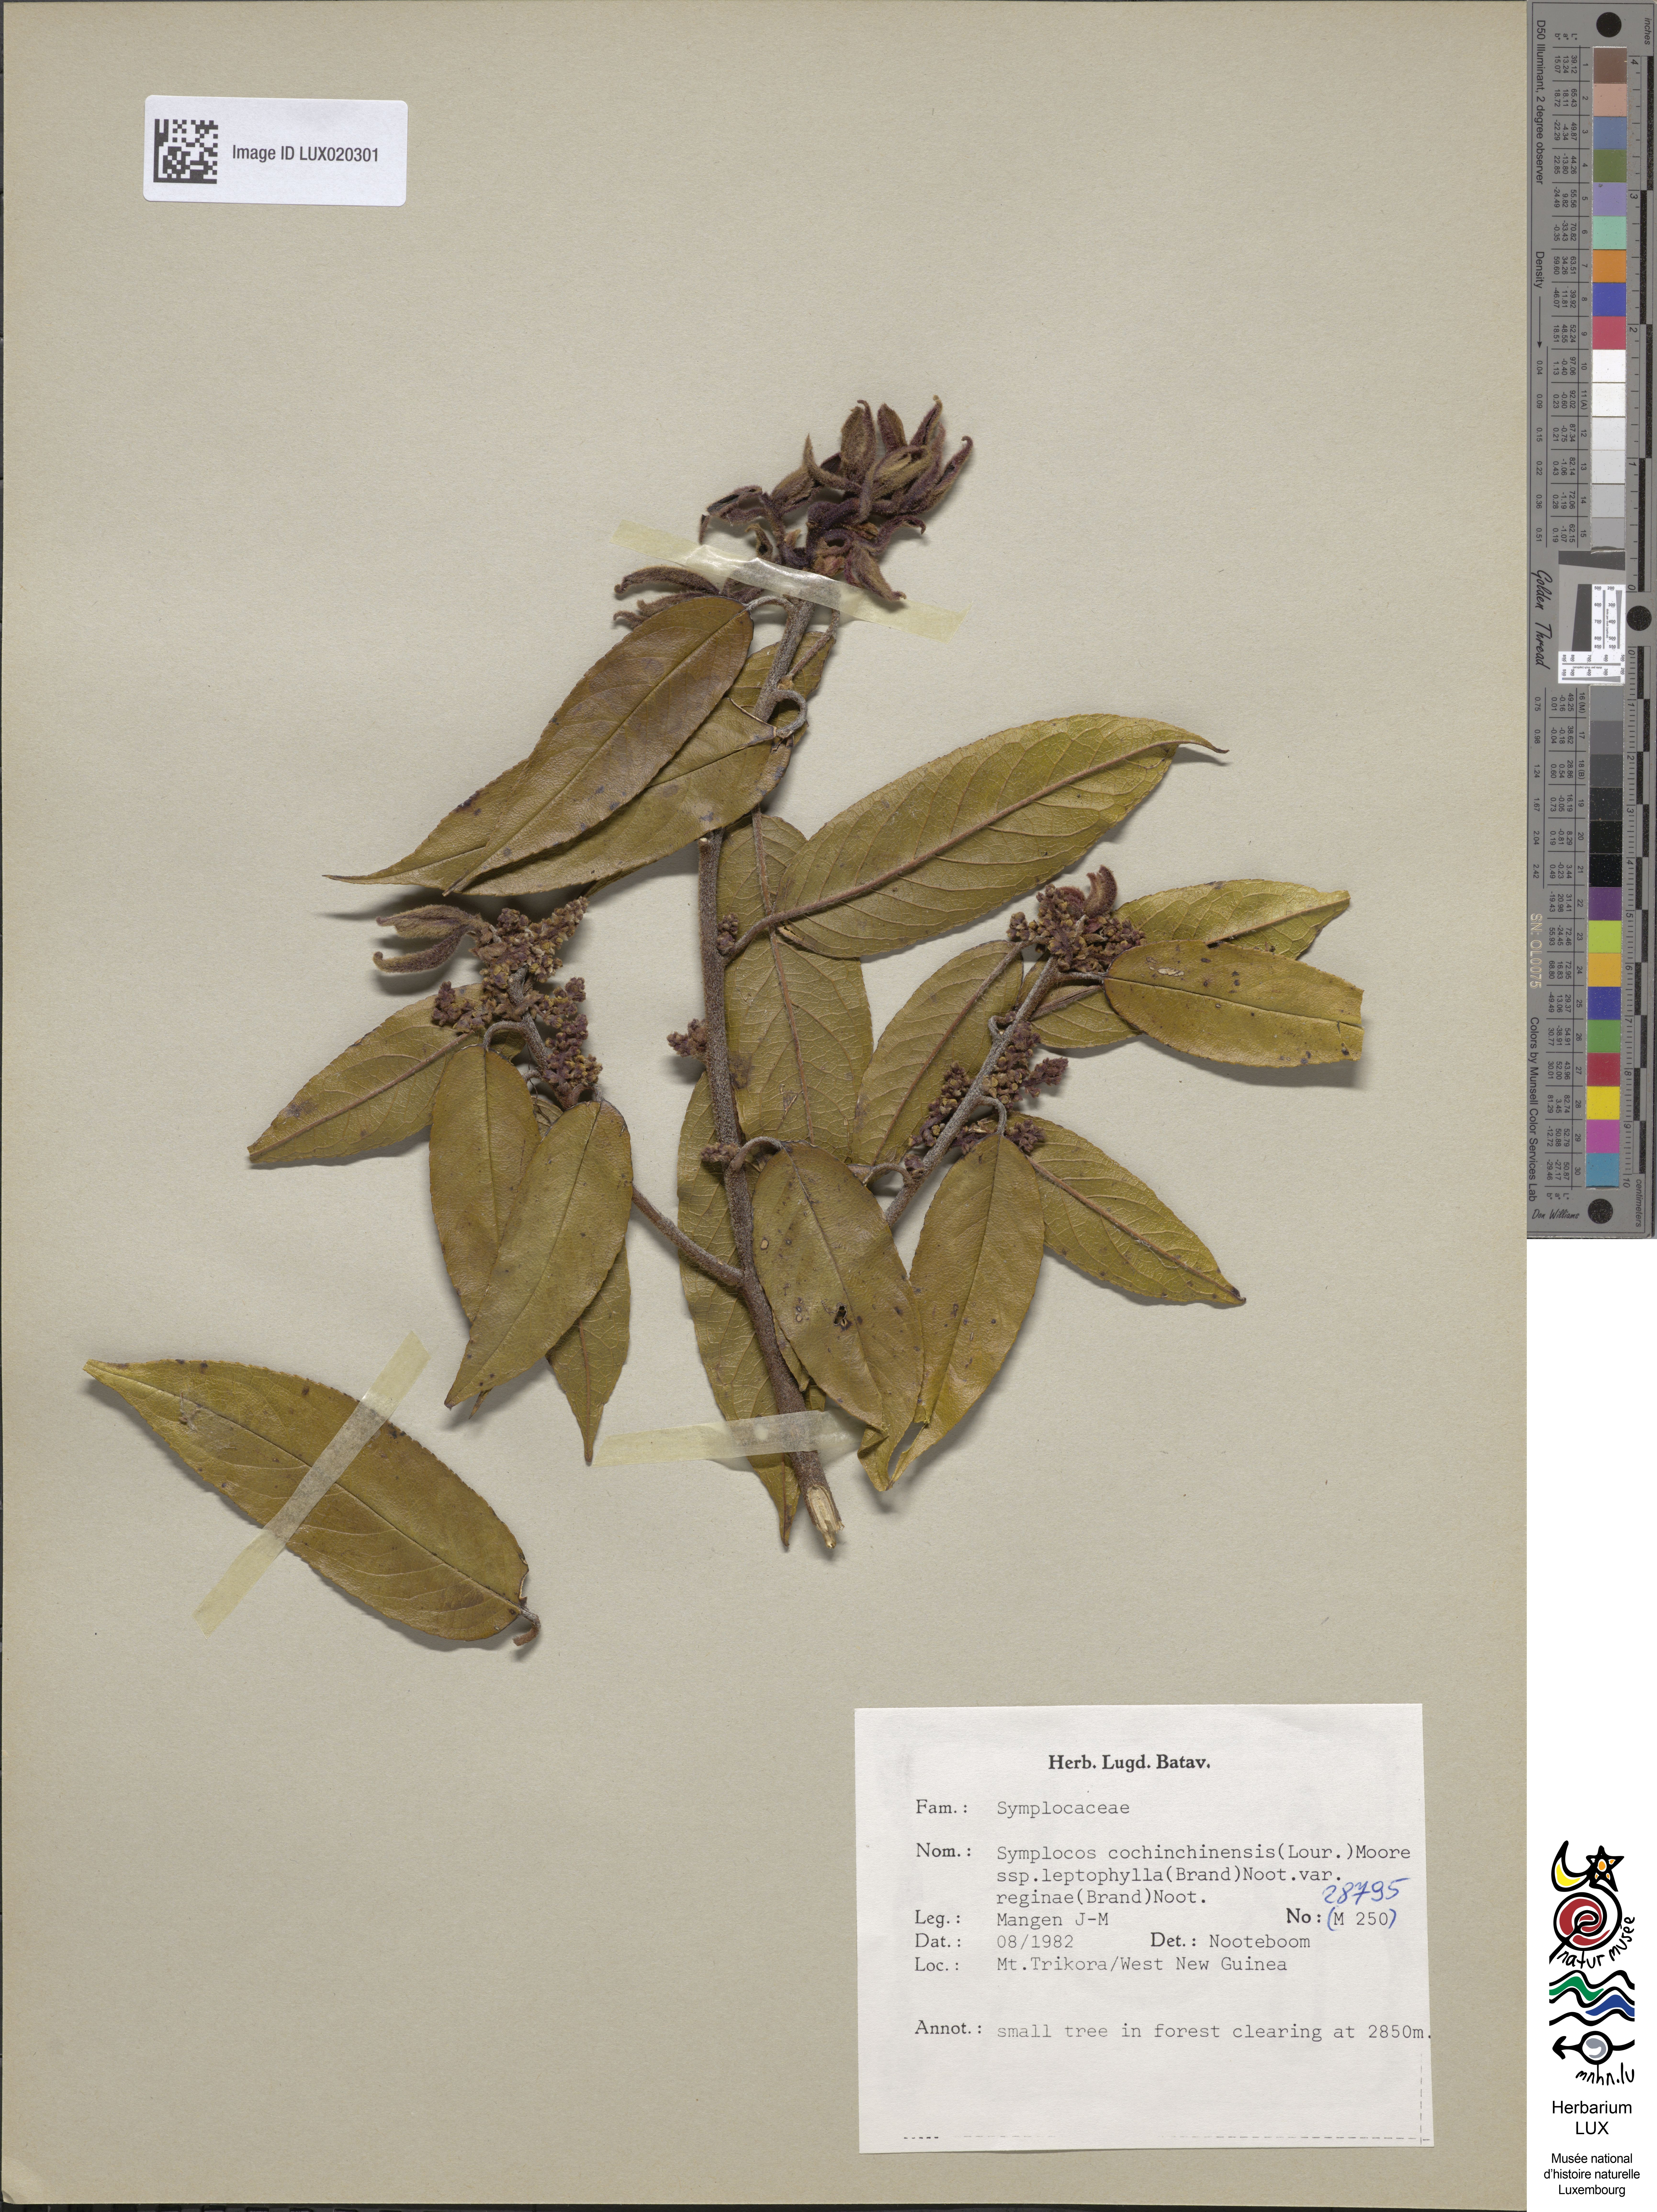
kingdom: Plantae
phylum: Tracheophyta
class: Magnoliopsida
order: Ericales
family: Symplocaceae
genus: Symplocos
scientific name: Symplocos reginae
